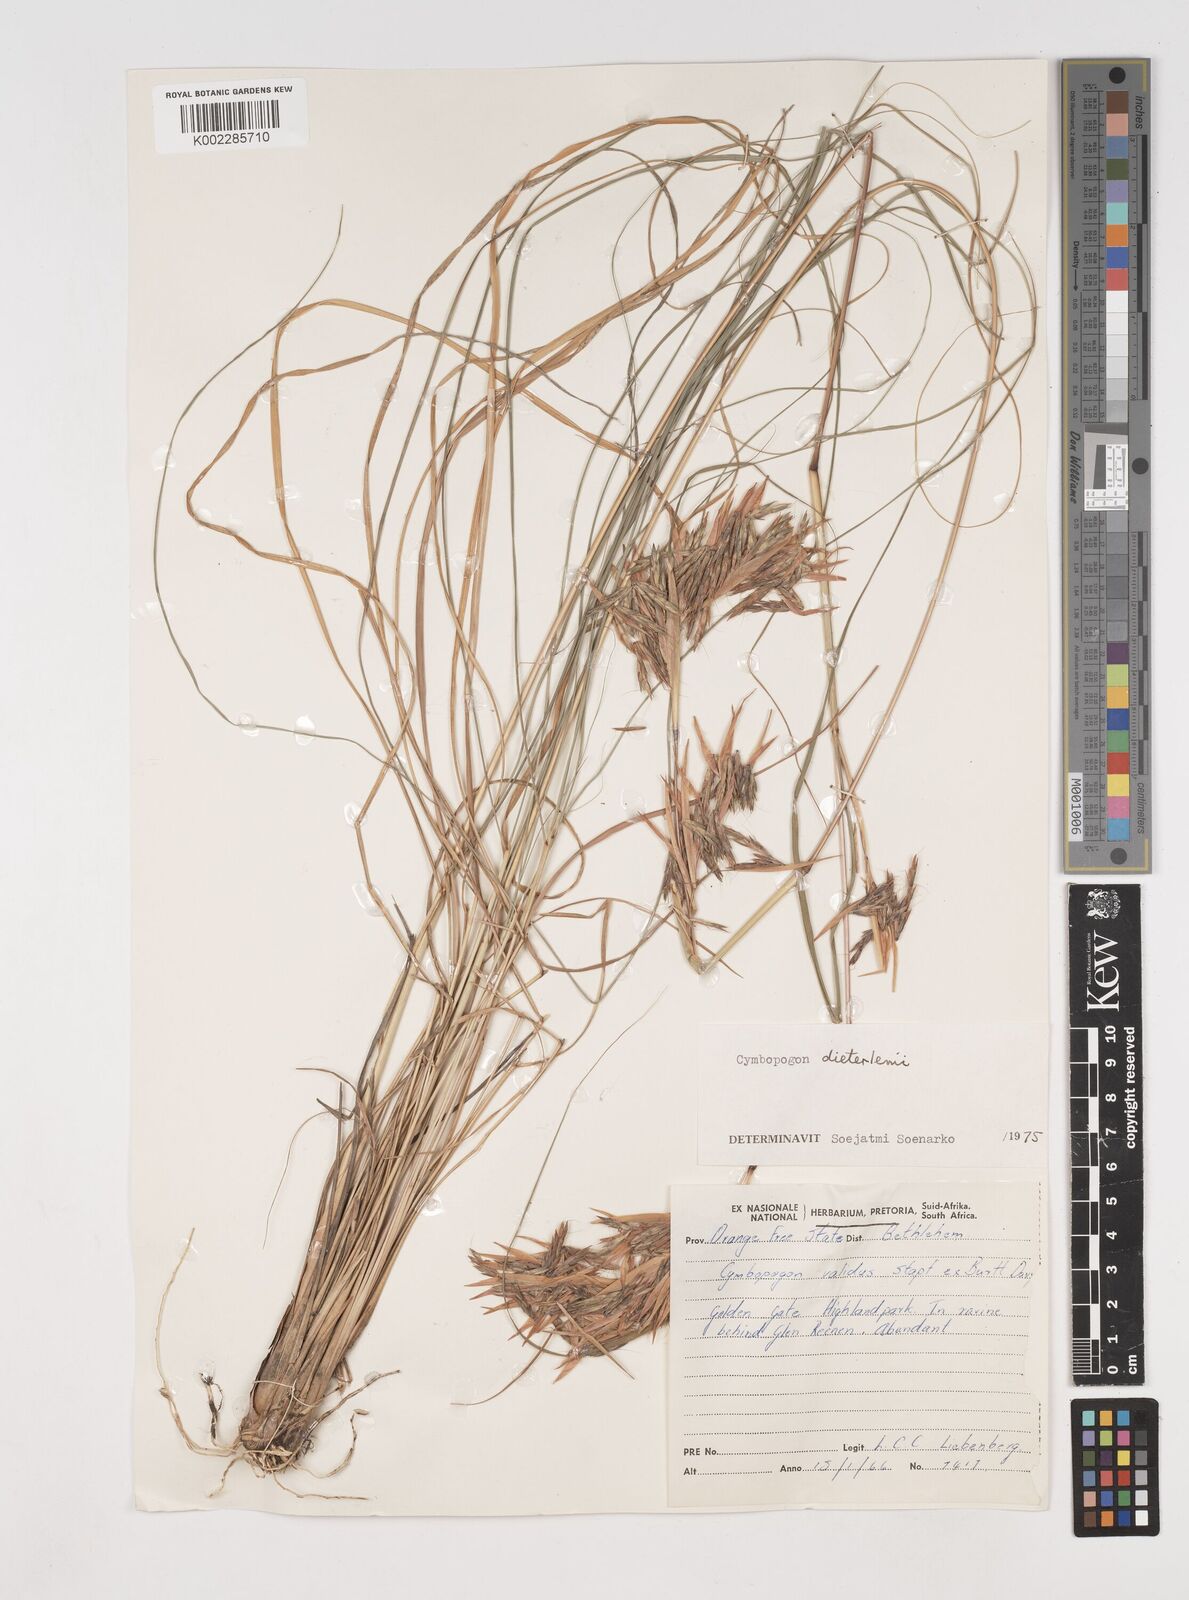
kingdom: Plantae
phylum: Tracheophyta
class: Liliopsida
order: Poales
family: Poaceae
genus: Cymbopogon
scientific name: Cymbopogon dieterlenii
